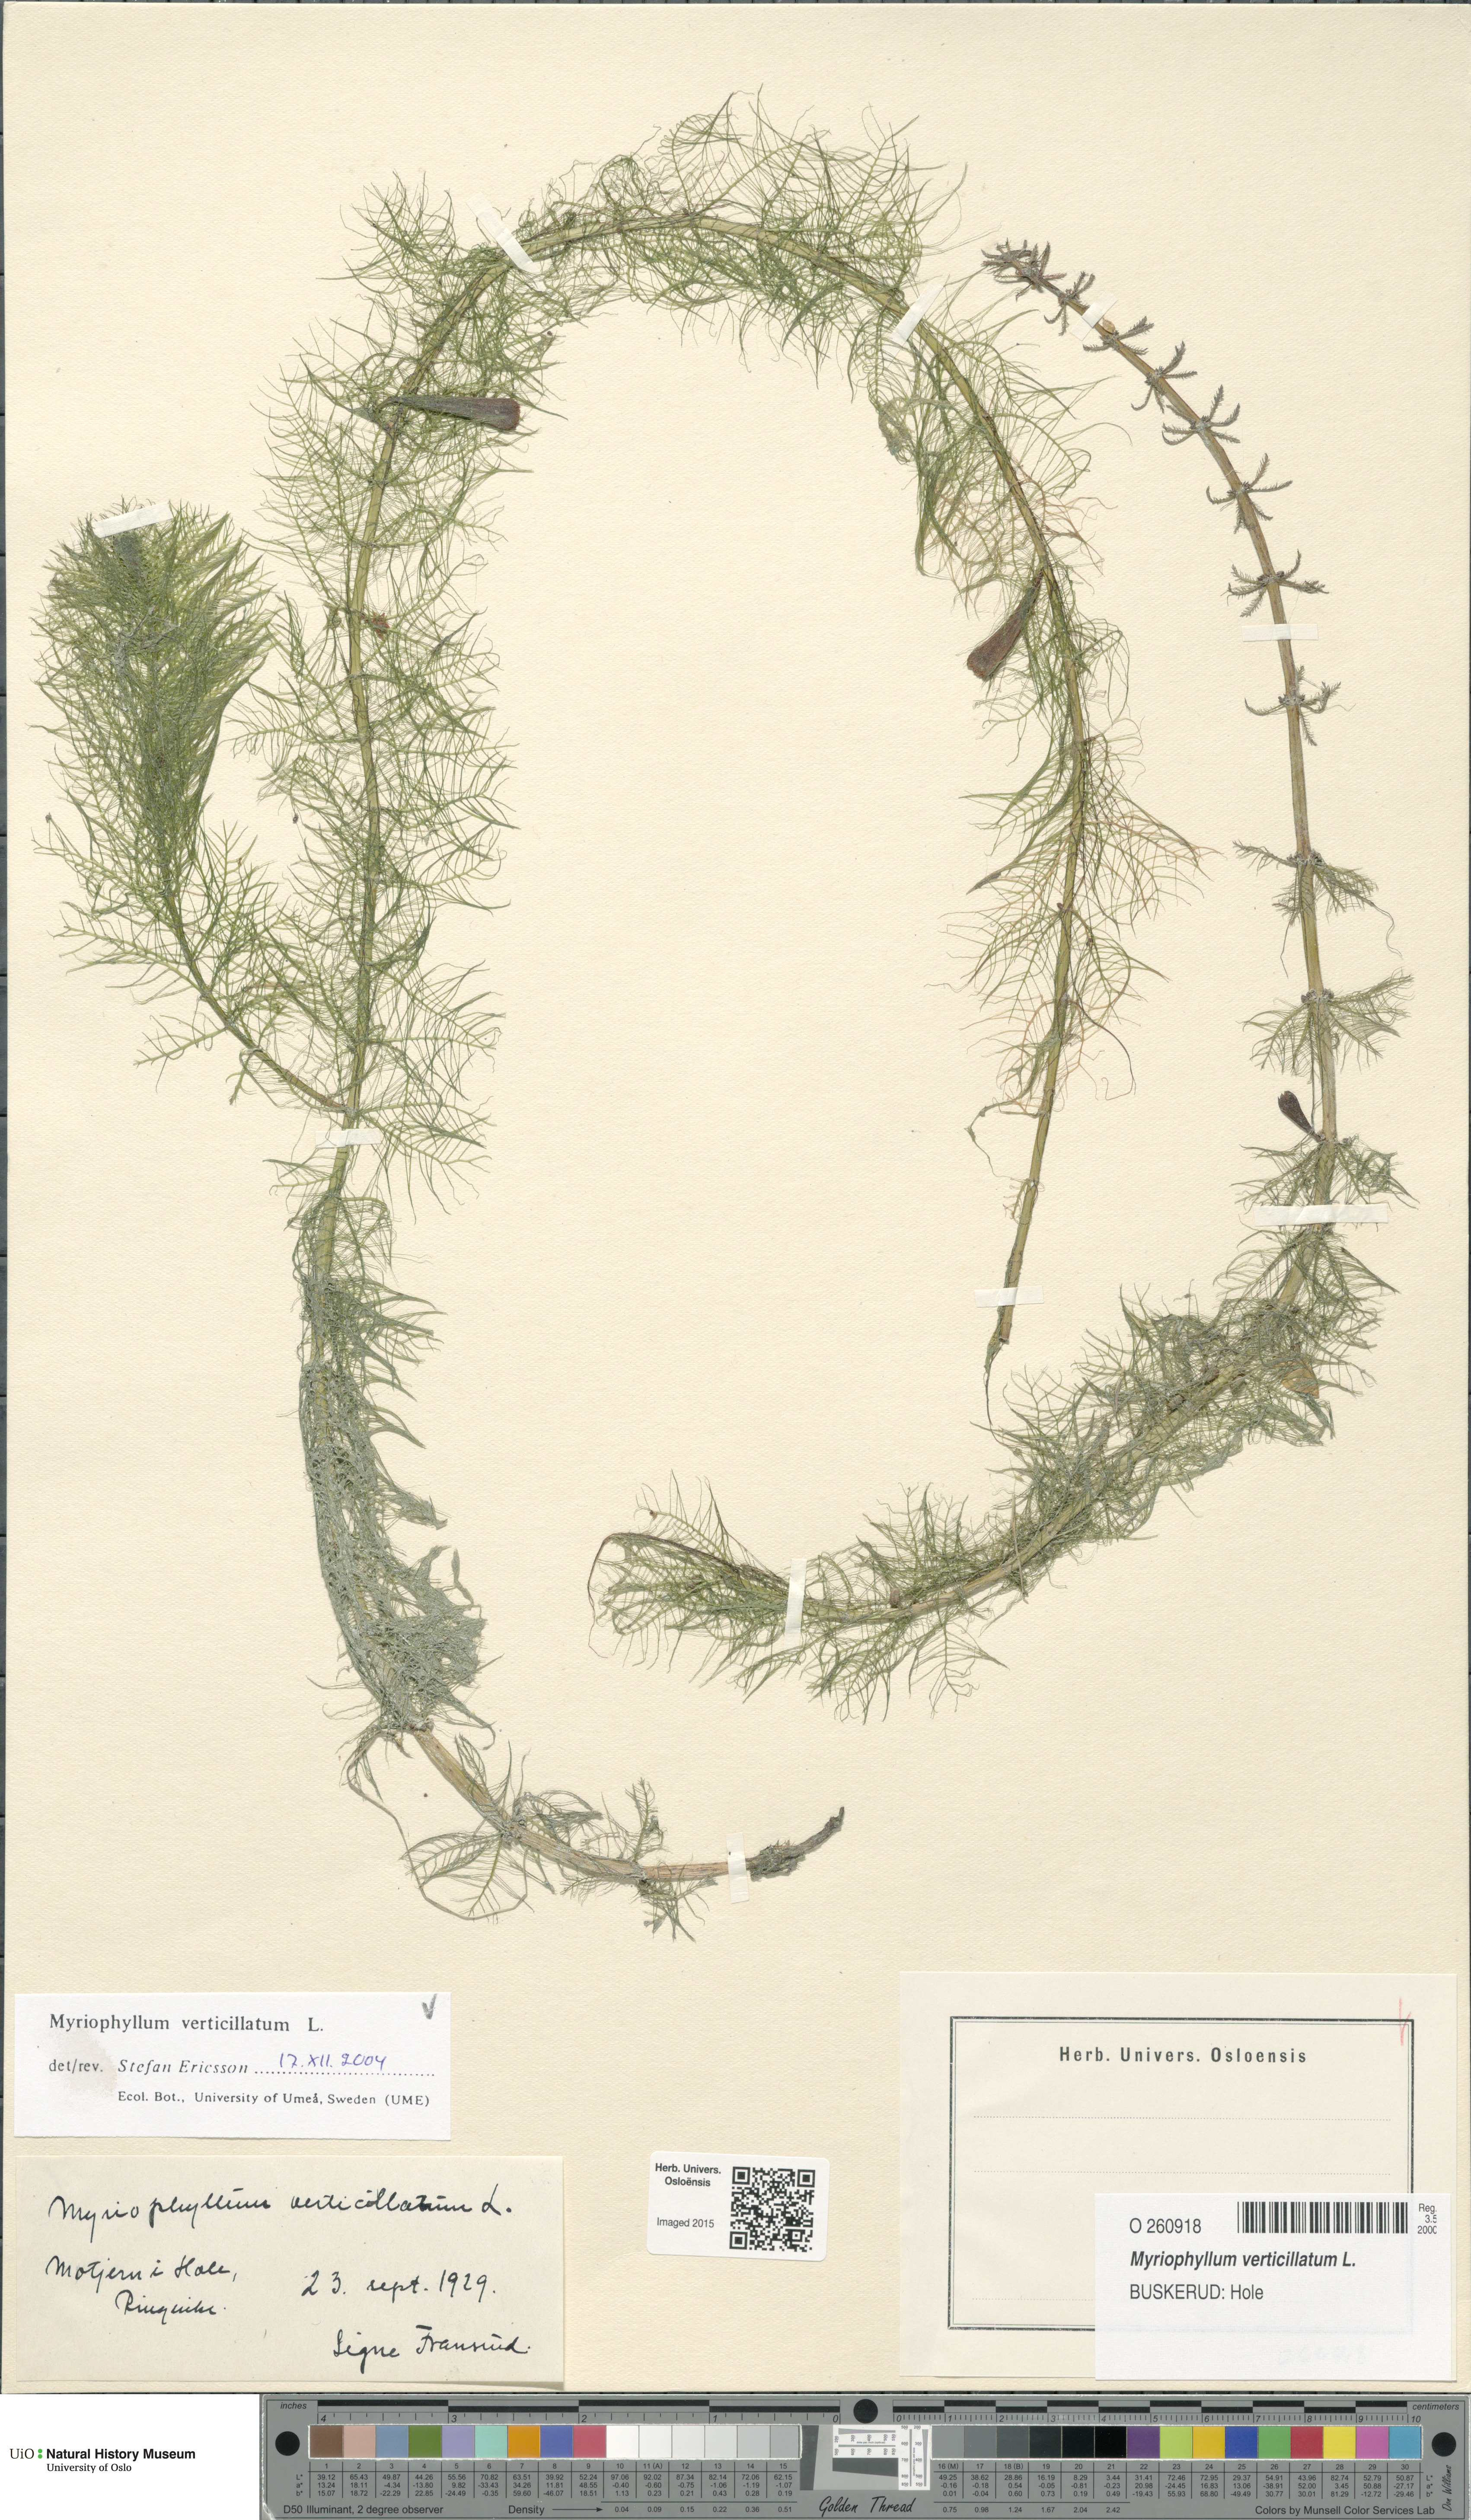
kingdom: Plantae
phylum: Tracheophyta
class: Magnoliopsida
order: Saxifragales
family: Haloragaceae
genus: Myriophyllum
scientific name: Myriophyllum verticillatum
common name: Whorled water-milfoil
